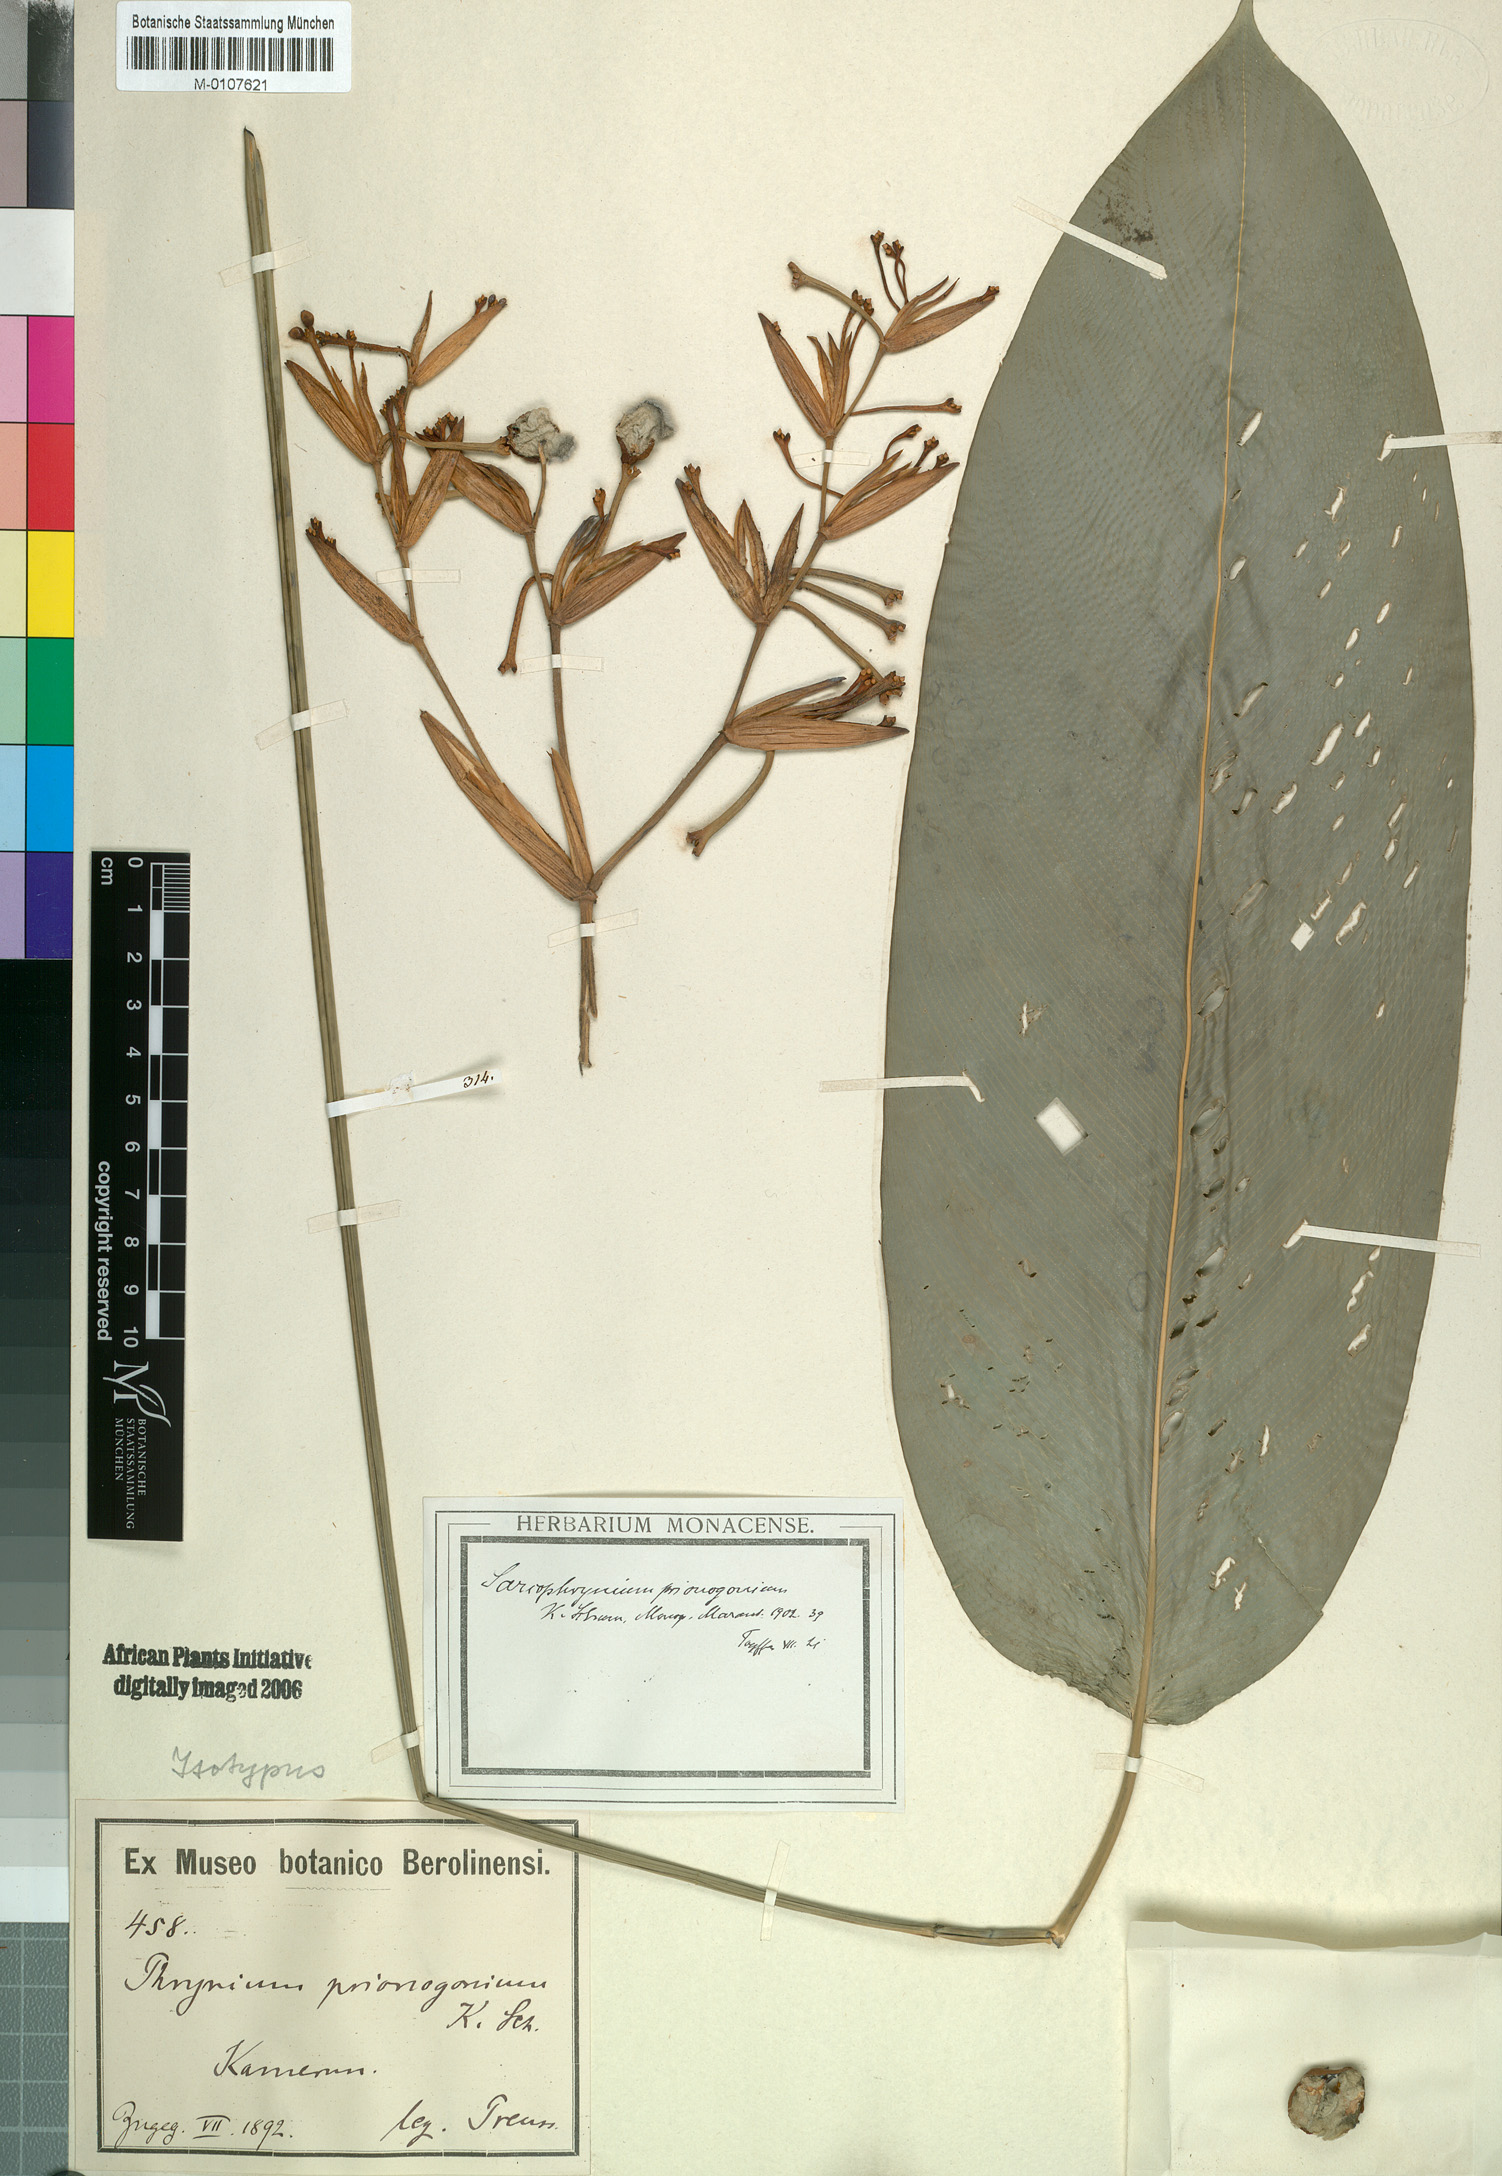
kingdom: Plantae
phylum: Tracheophyta
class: Liliopsida
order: Zingiberales
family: Marantaceae
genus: Sarcophrynium
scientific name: Sarcophrynium prionogonium
